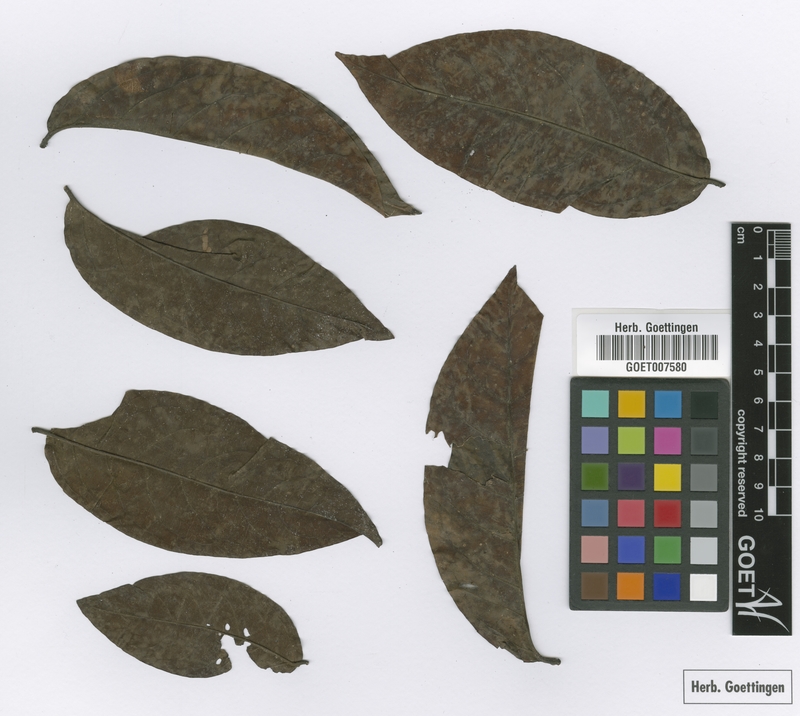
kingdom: Plantae
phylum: Tracheophyta
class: Magnoliopsida
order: Malpighiales
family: Malpighiaceae
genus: Heteropterys
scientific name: Heteropterys racemosa
